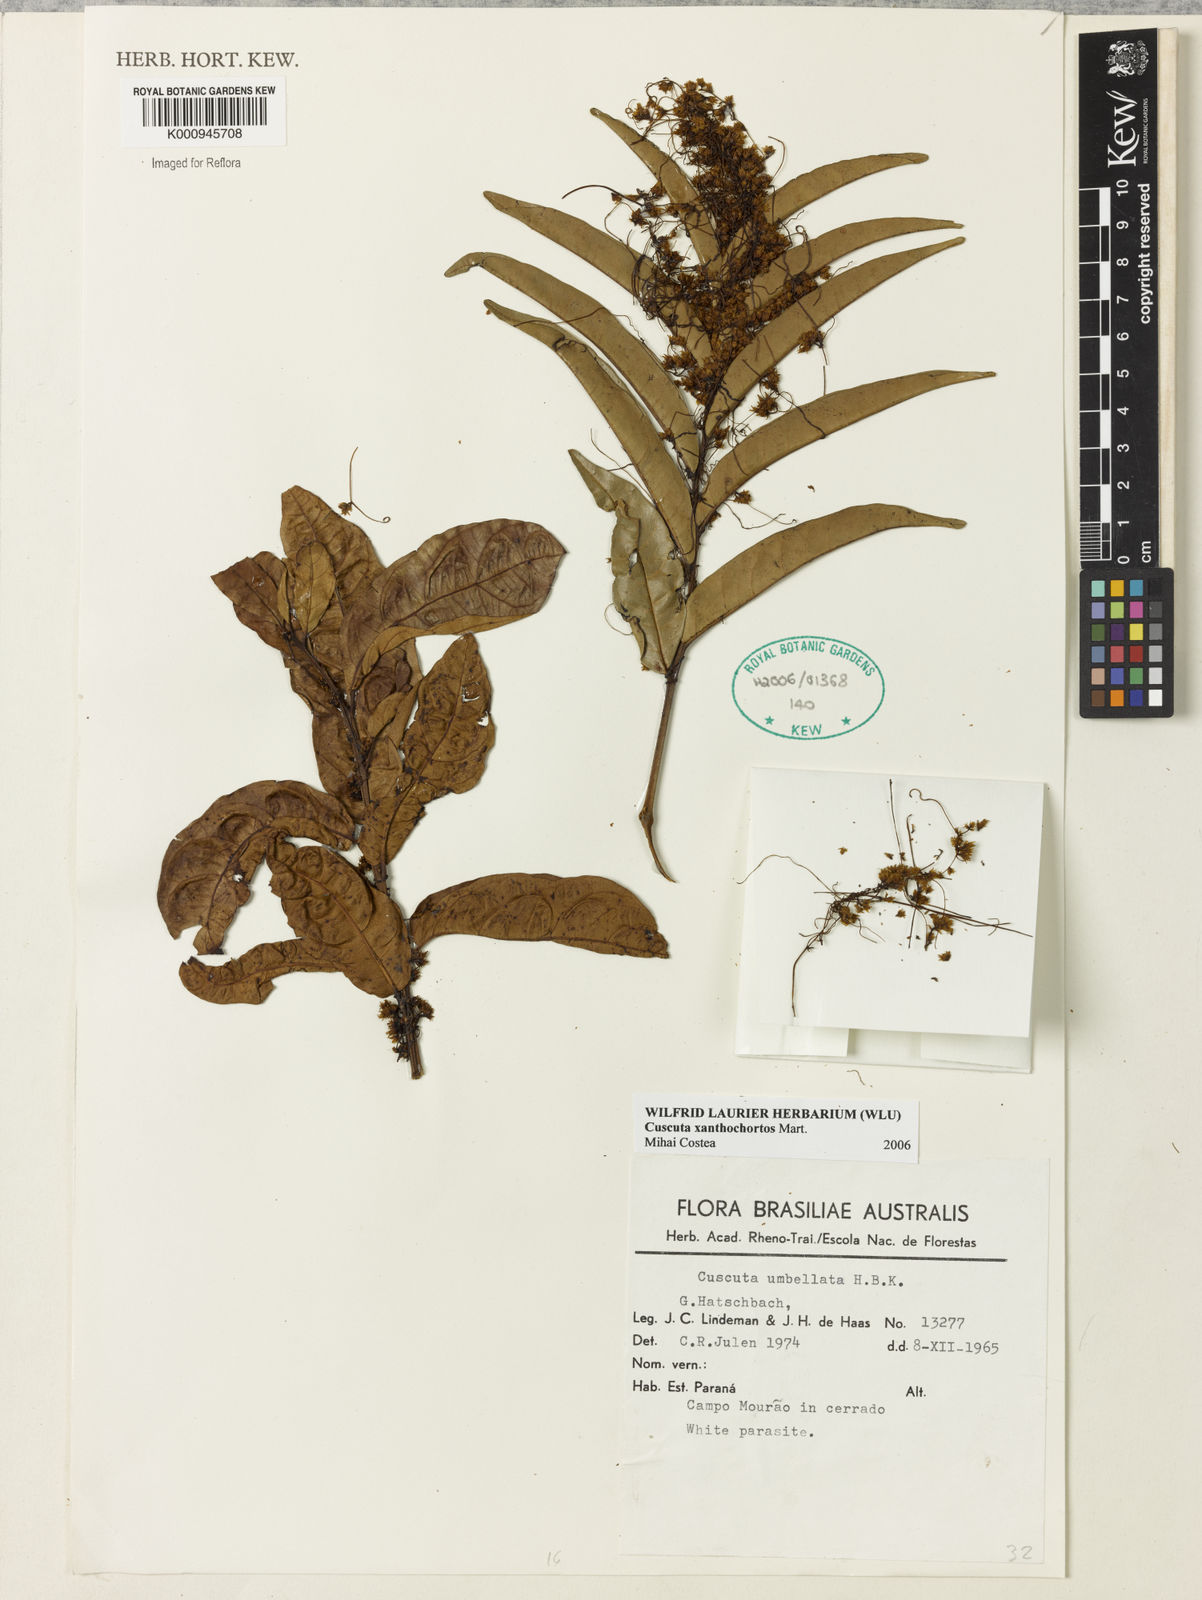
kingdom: Plantae
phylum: Tracheophyta
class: Magnoliopsida
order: Solanales
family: Convolvulaceae
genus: Cuscuta
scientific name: Cuscuta
